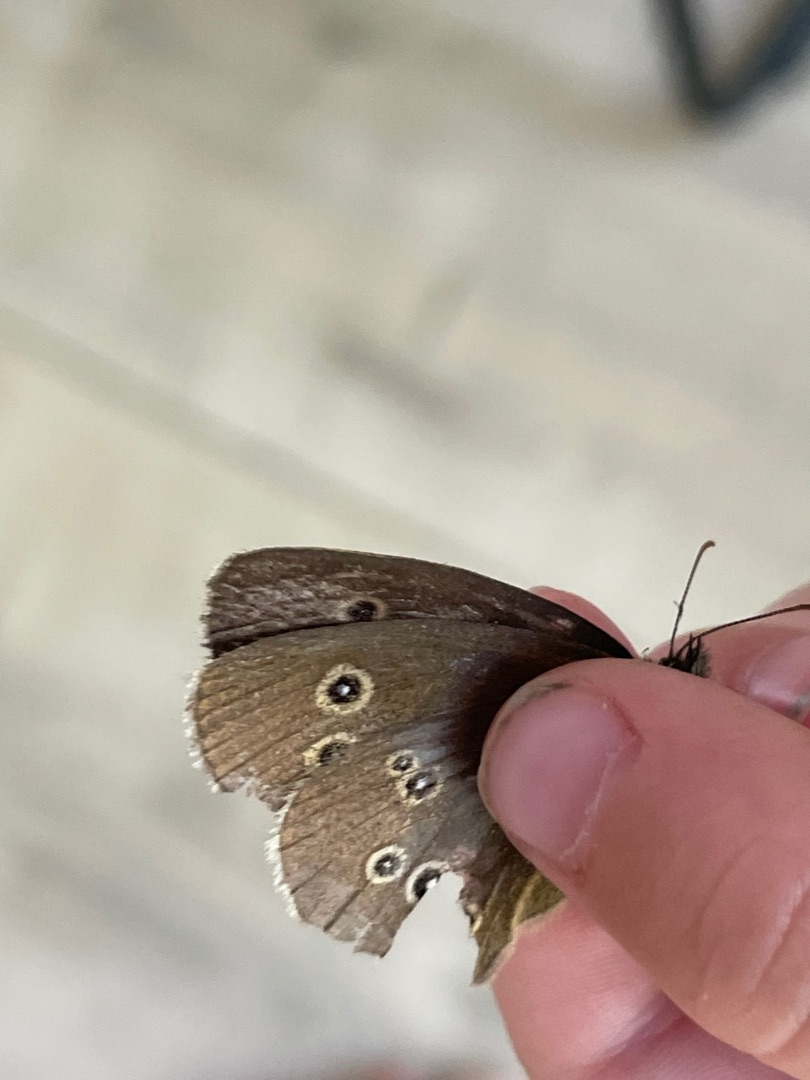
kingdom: Animalia
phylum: Arthropoda
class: Insecta
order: Lepidoptera
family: Nymphalidae
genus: Aphantopus
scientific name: Aphantopus hyperantus
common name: Engrandøje
